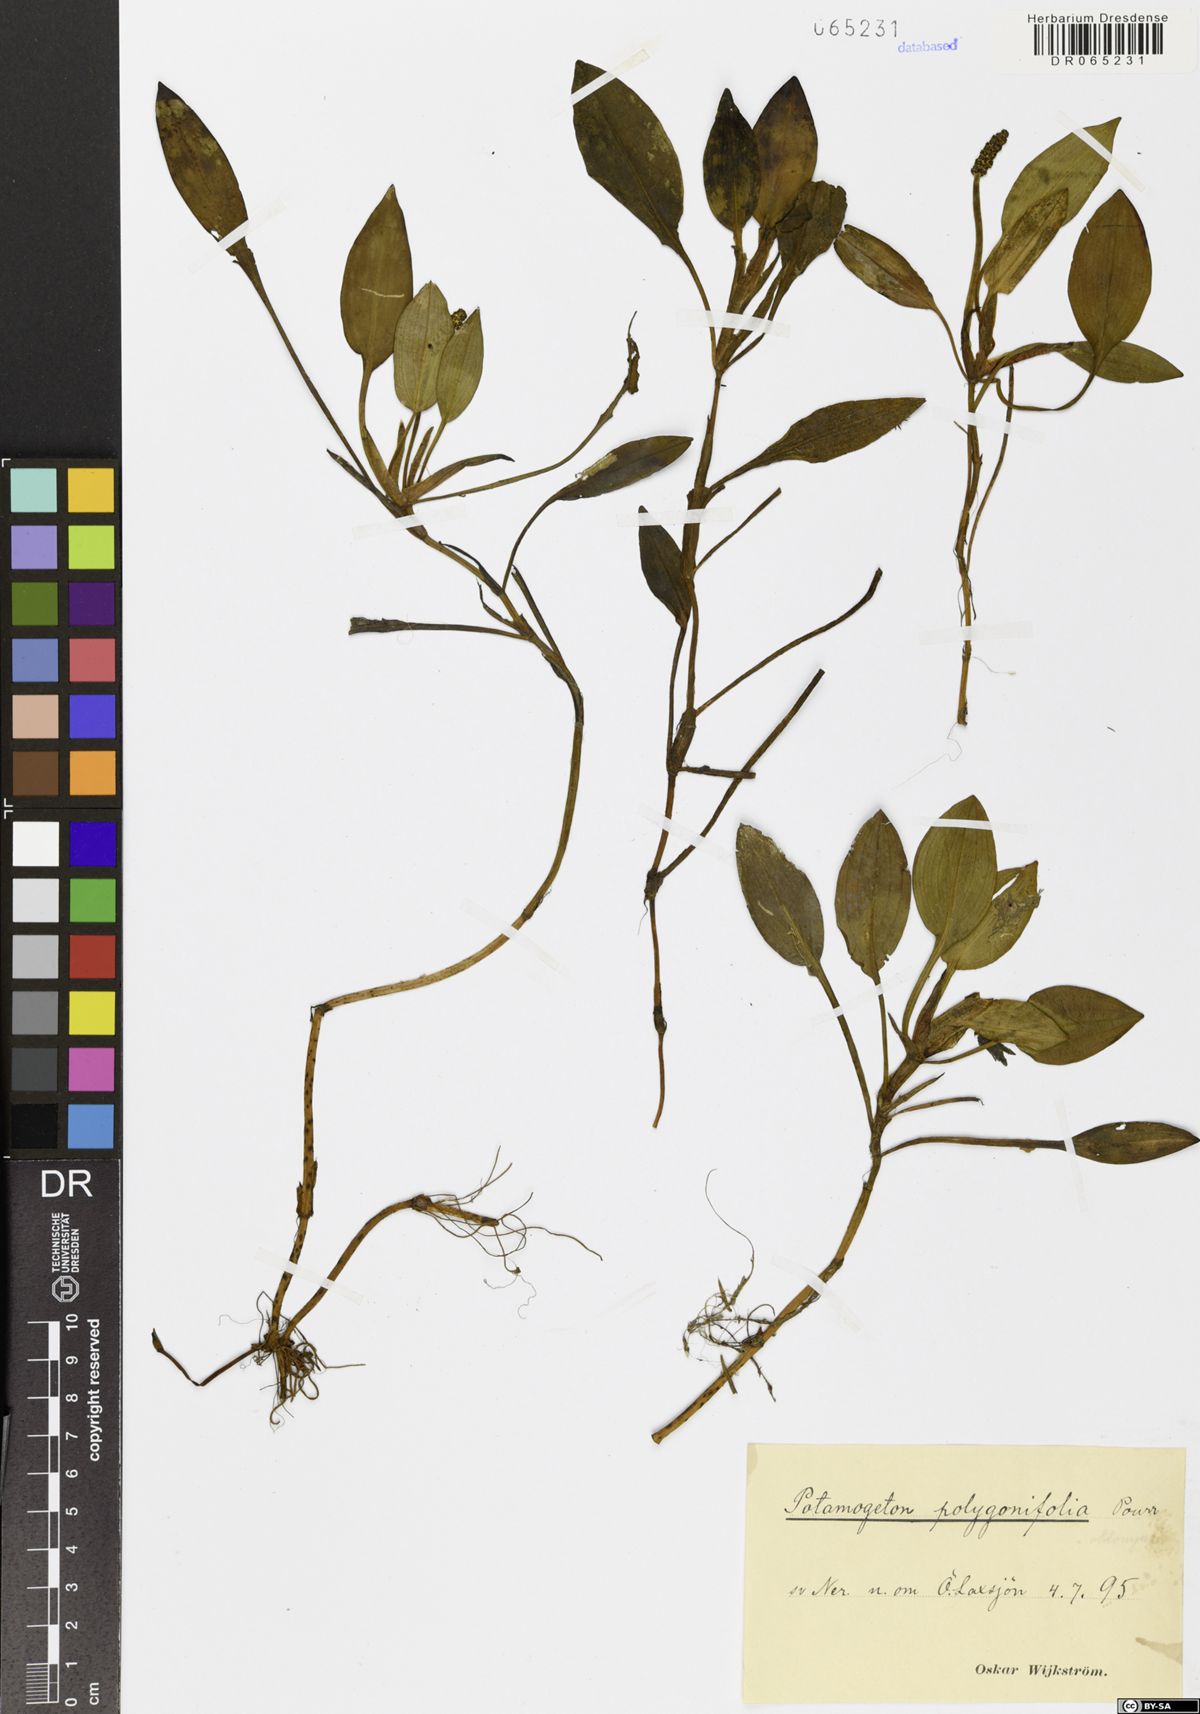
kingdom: Plantae
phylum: Tracheophyta
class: Liliopsida
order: Alismatales
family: Potamogetonaceae
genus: Potamogeton
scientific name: Potamogeton polygonifolius
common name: Bog pondweed
